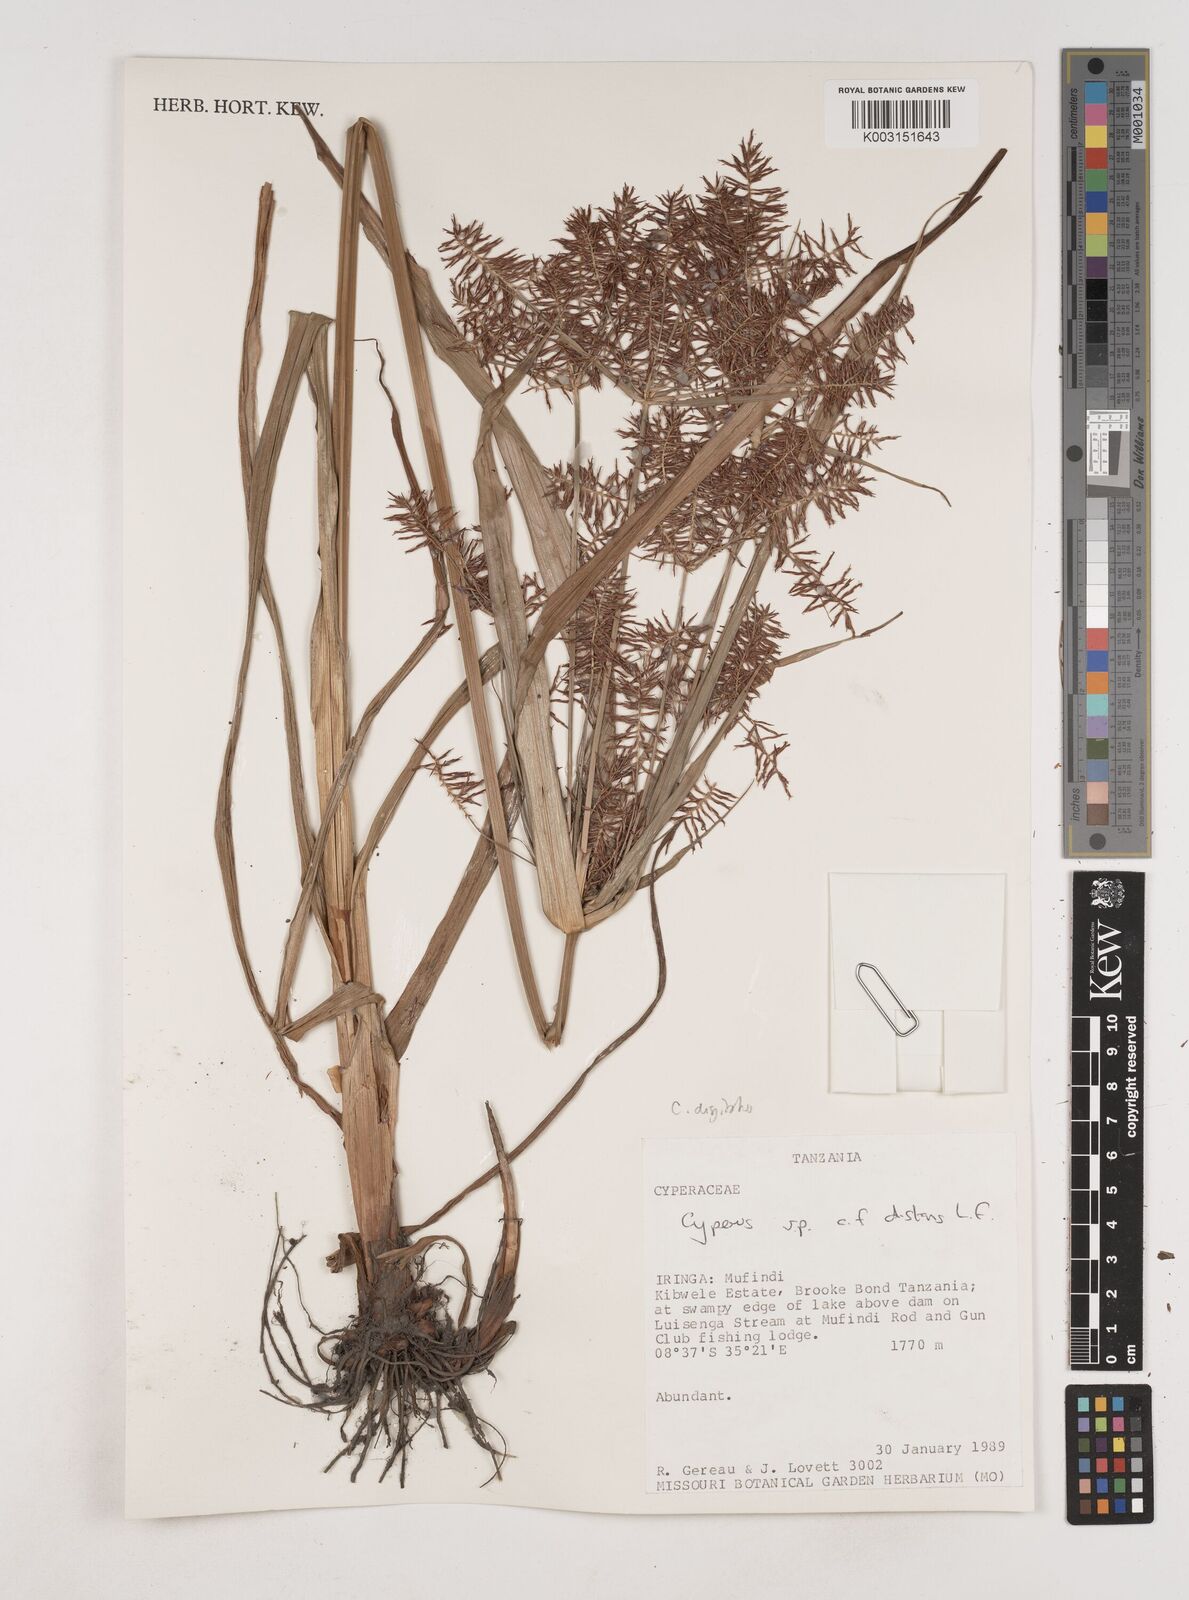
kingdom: Plantae
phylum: Tracheophyta
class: Liliopsida
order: Poales
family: Cyperaceae
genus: Cyperus
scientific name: Cyperus digitatus
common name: Finger flatsedge
